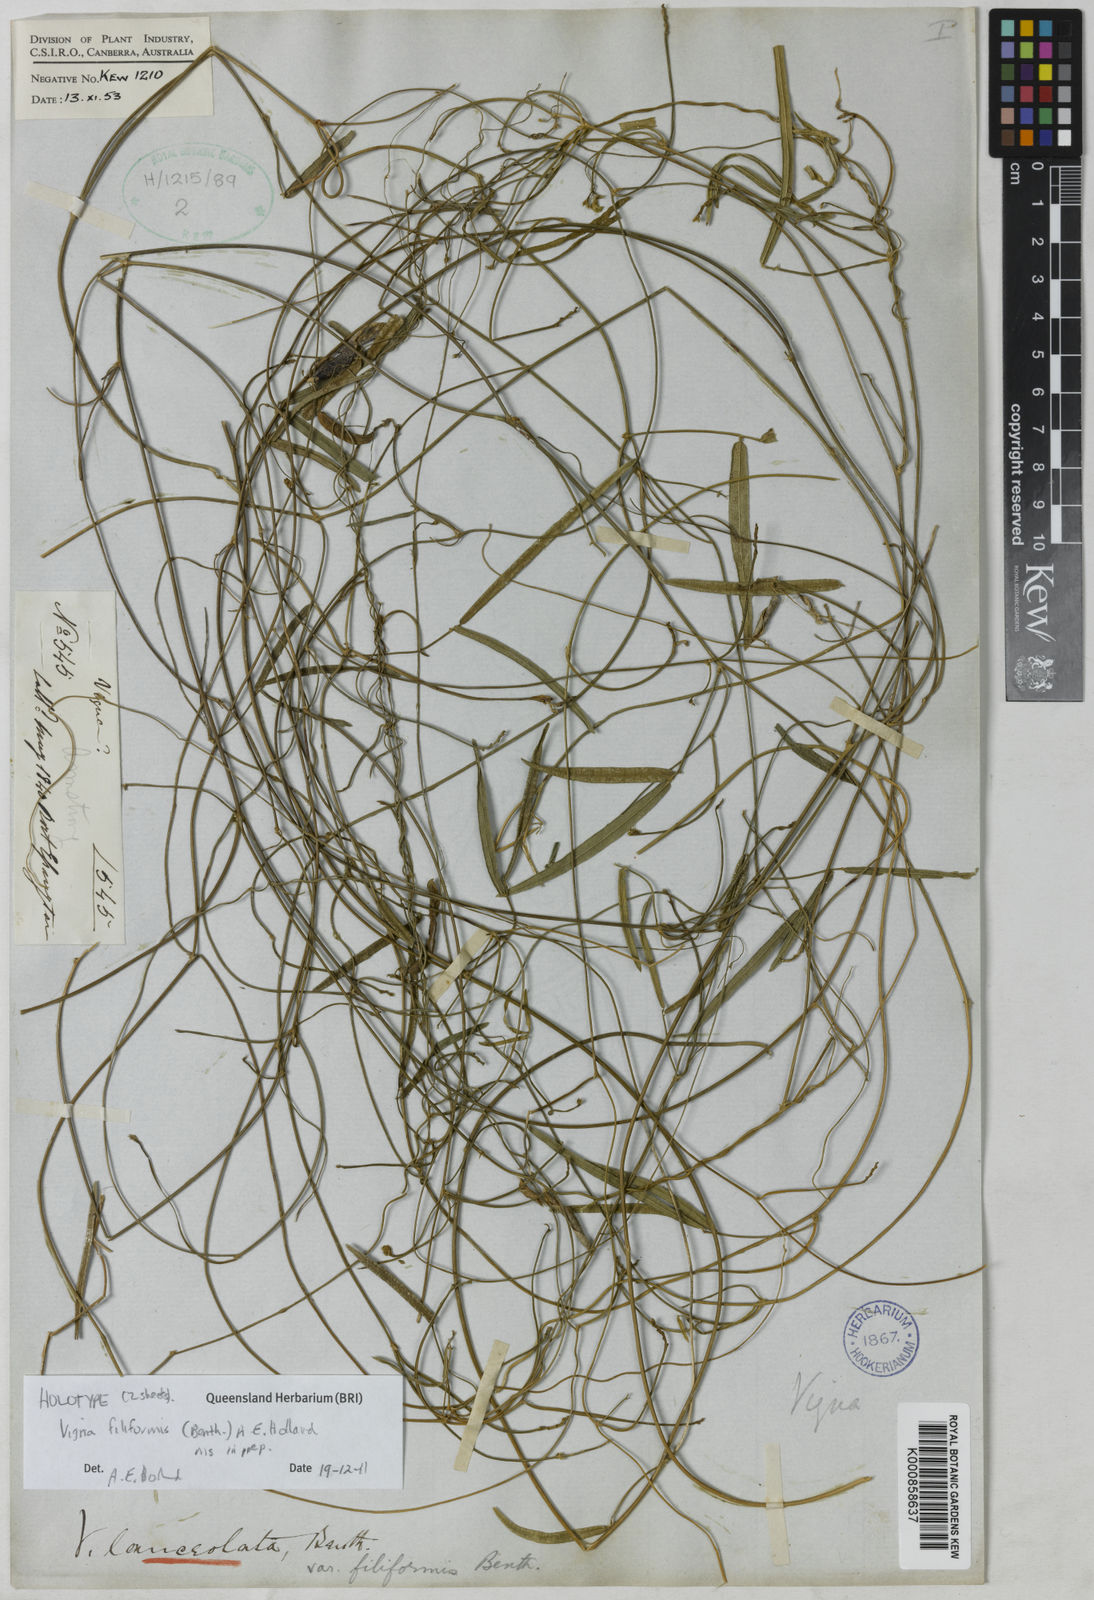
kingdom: Plantae
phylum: Tracheophyta
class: Magnoliopsida
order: Fabales
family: Fabaceae
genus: Vigna
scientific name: Vigna lanceolata
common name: Maloga-bean
